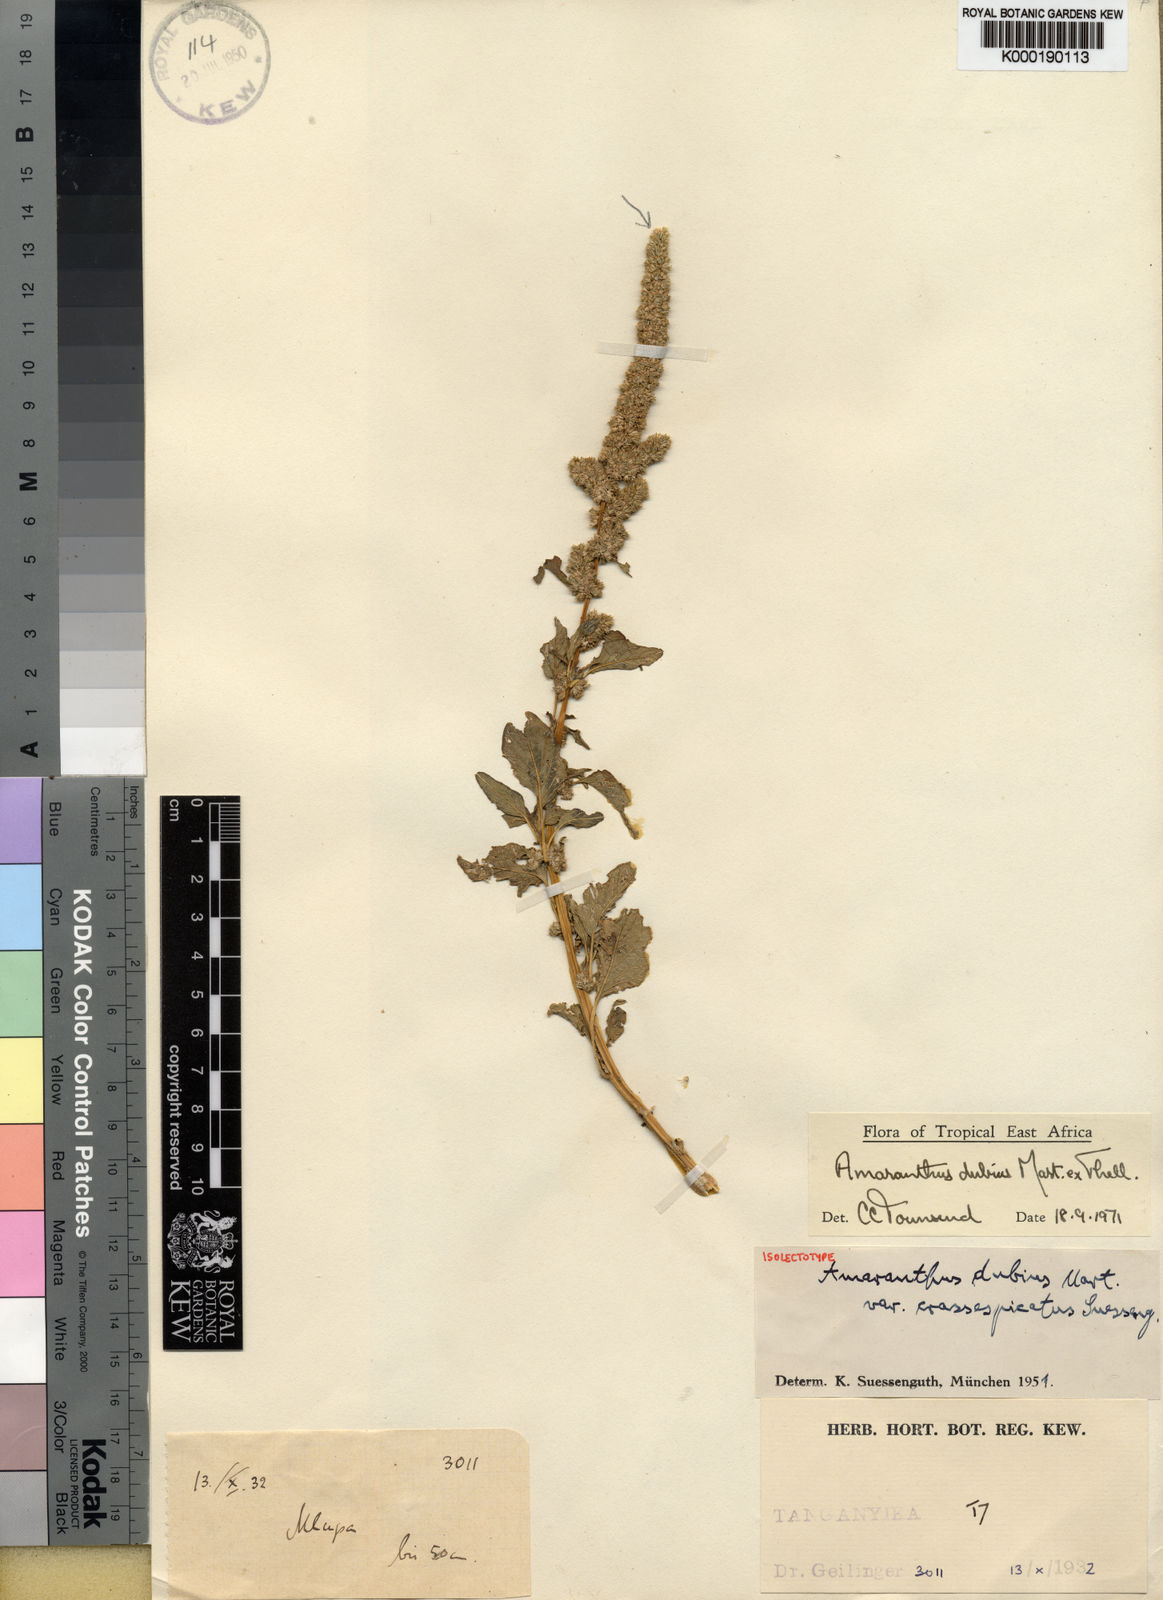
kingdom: Plantae
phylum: Tracheophyta
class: Magnoliopsida
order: Caryophyllales
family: Amaranthaceae
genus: Amaranthus
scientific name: Amaranthus dubius
